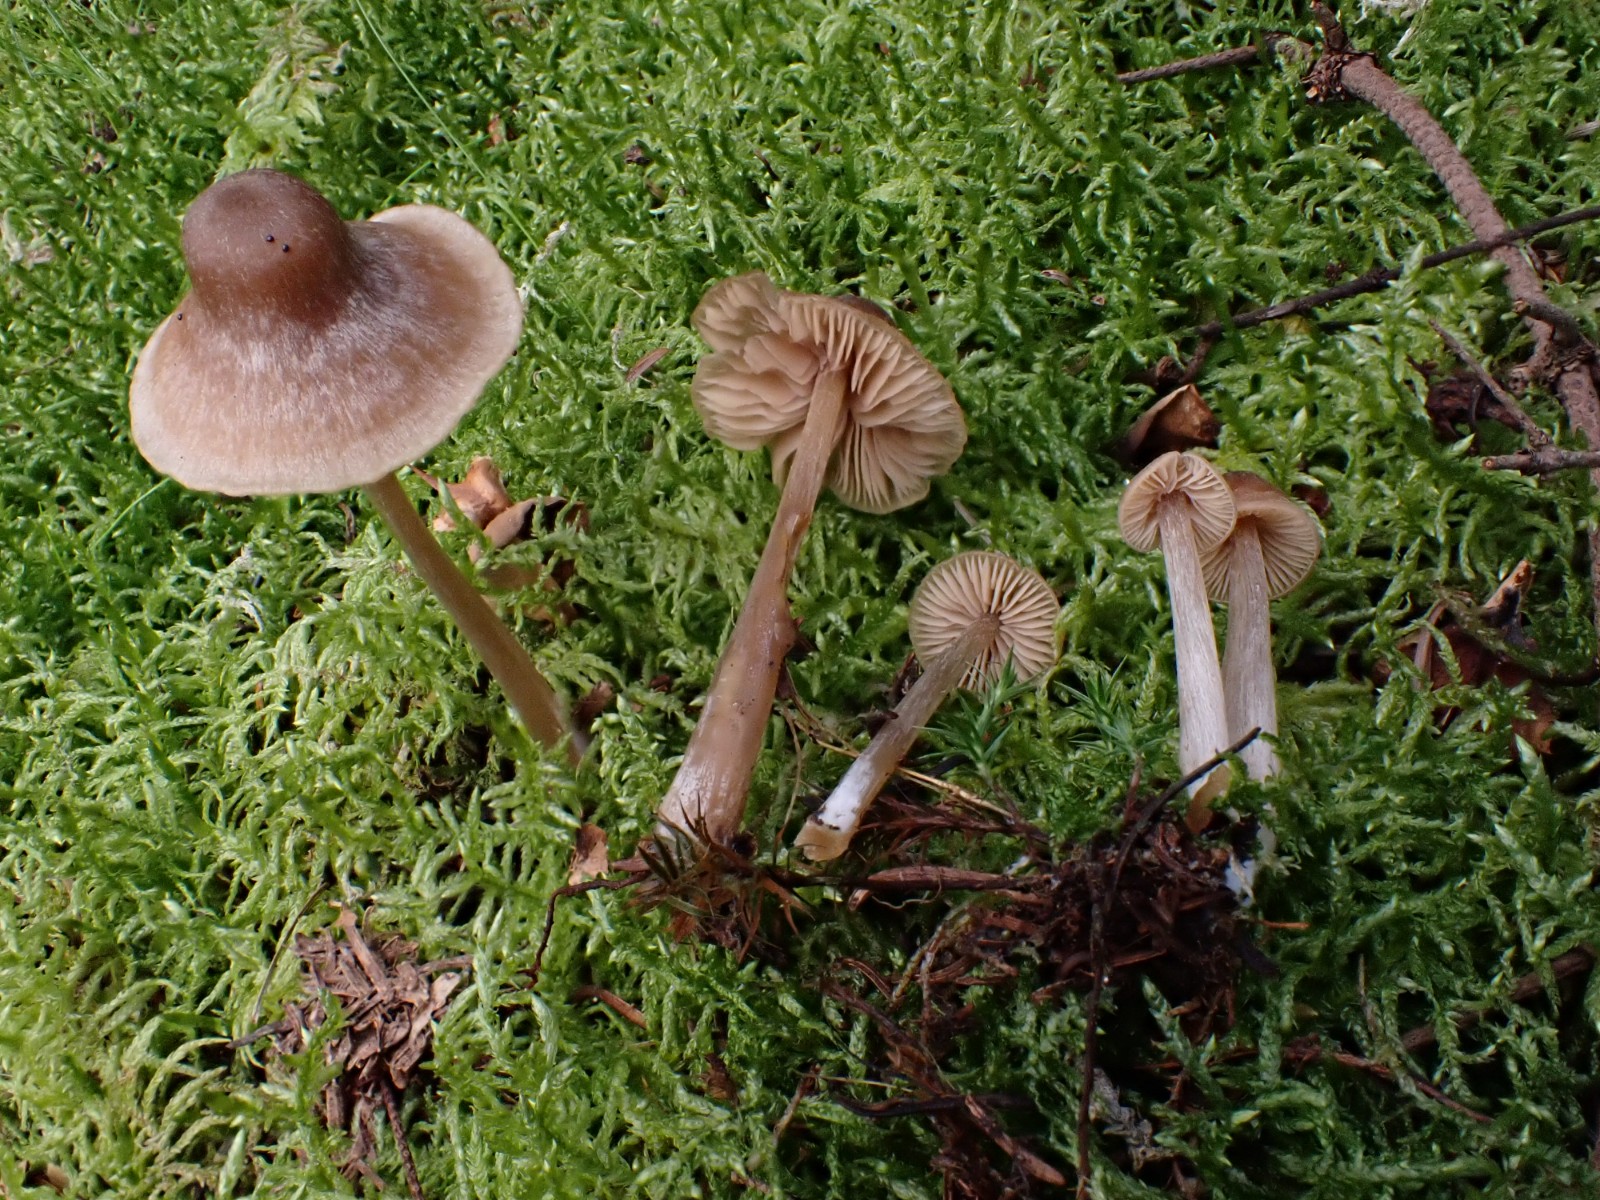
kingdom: Fungi
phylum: Basidiomycota
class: Agaricomycetes
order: Agaricales
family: Entolomataceae
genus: Entoloma
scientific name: Entoloma cetratum
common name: voks-rødblad
